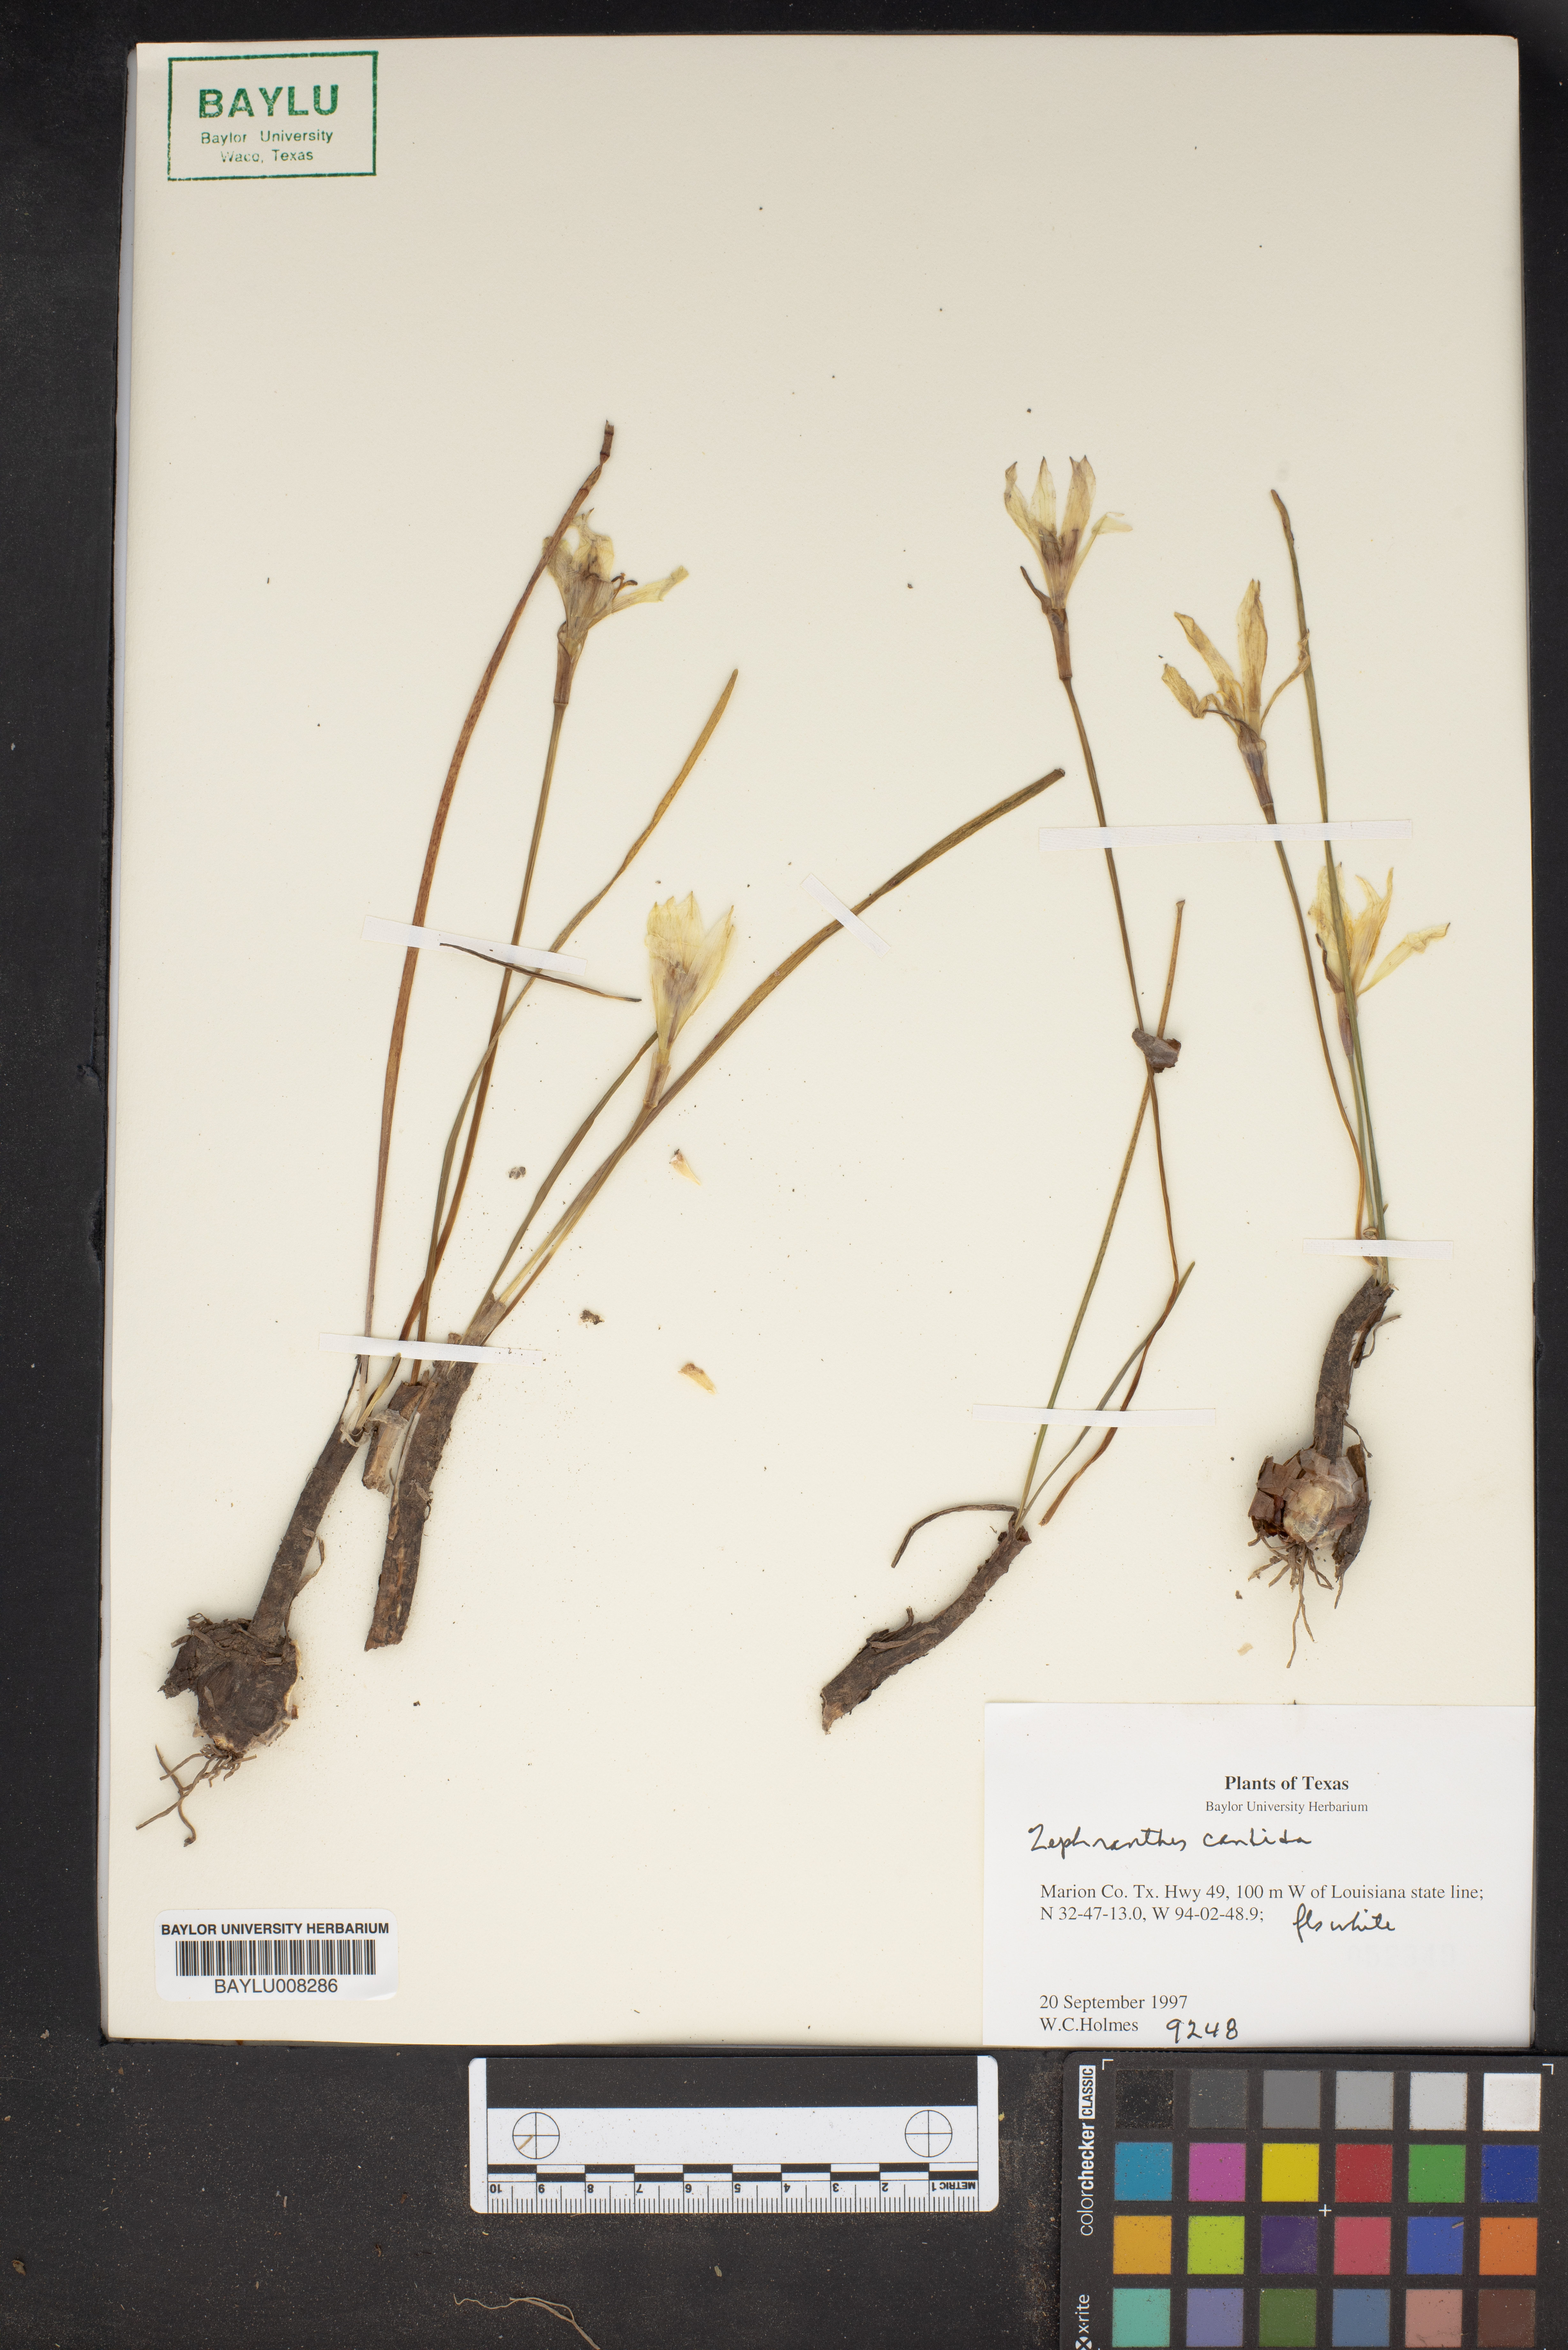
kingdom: Plantae
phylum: Tracheophyta
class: Liliopsida
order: Asparagales
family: Amaryllidaceae
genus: Zephyranthes
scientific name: Zephyranthes candida
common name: Autumn zephyrlily
